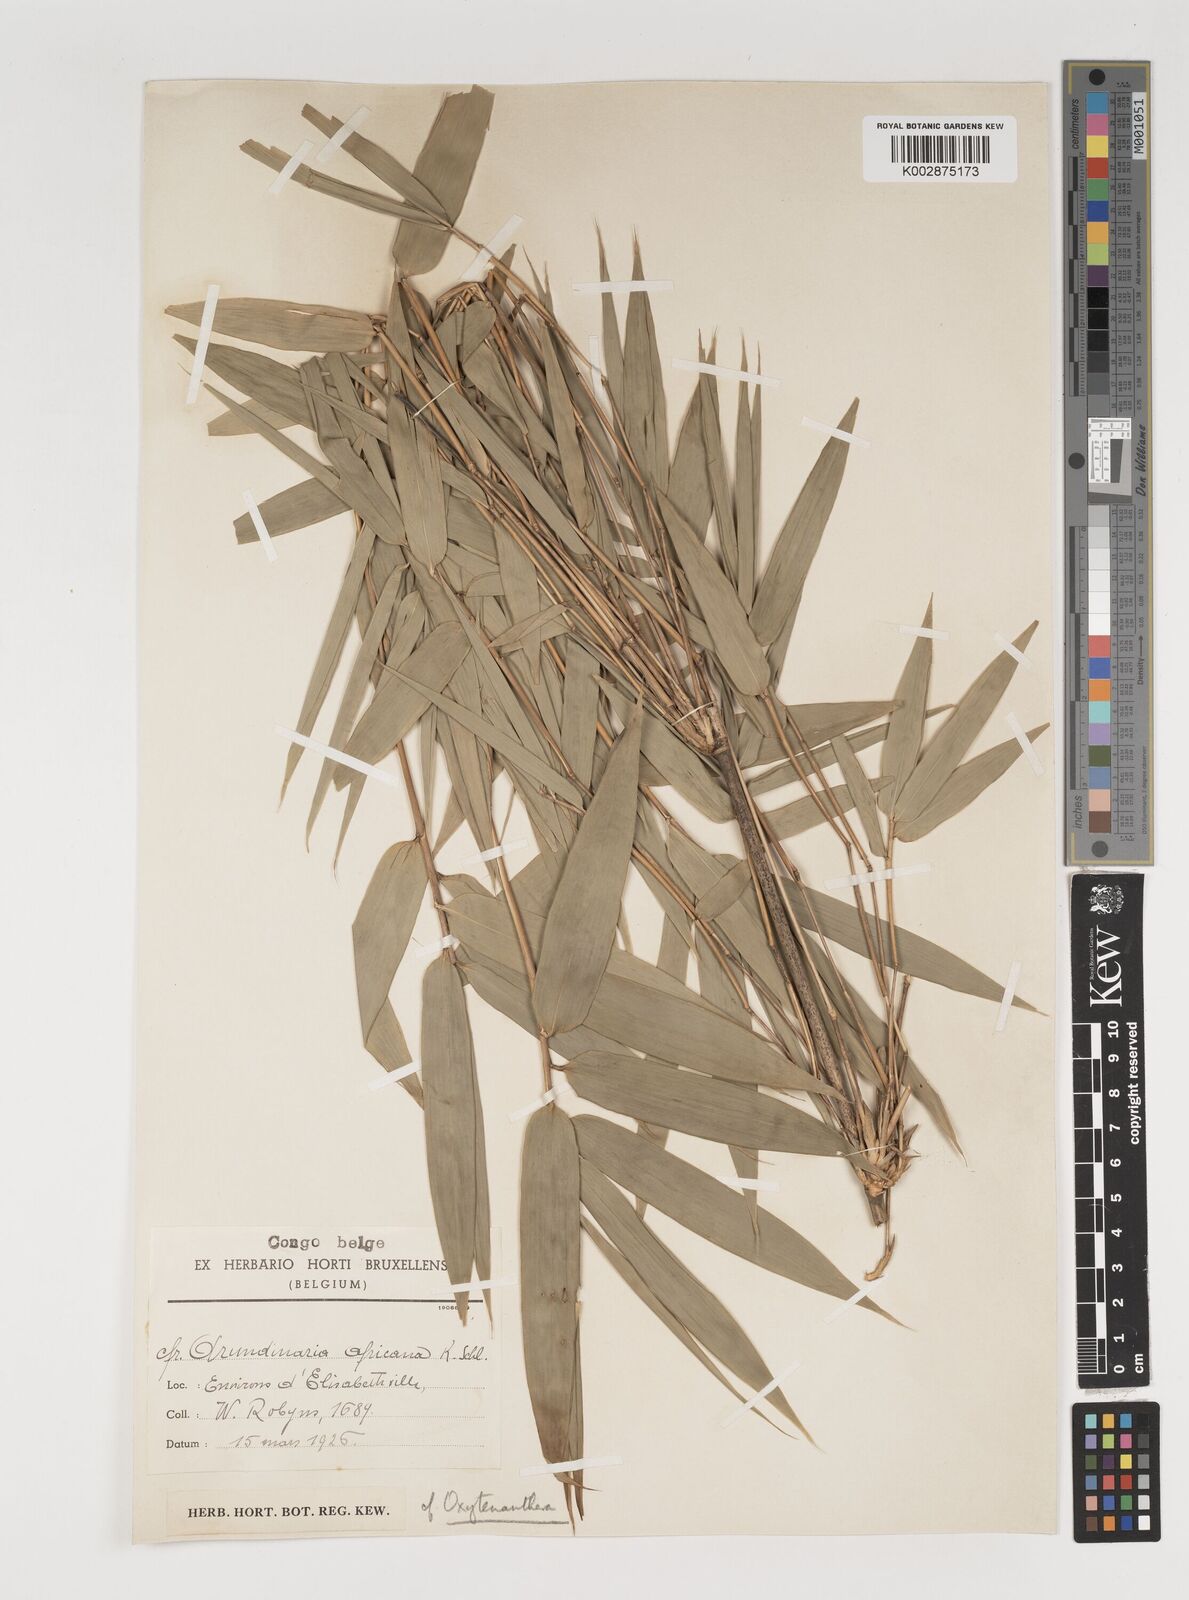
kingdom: Plantae
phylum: Tracheophyta
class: Liliopsida
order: Poales
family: Poaceae
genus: Oxytenanthera
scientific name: Oxytenanthera abyssinica
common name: Wine bamboo
